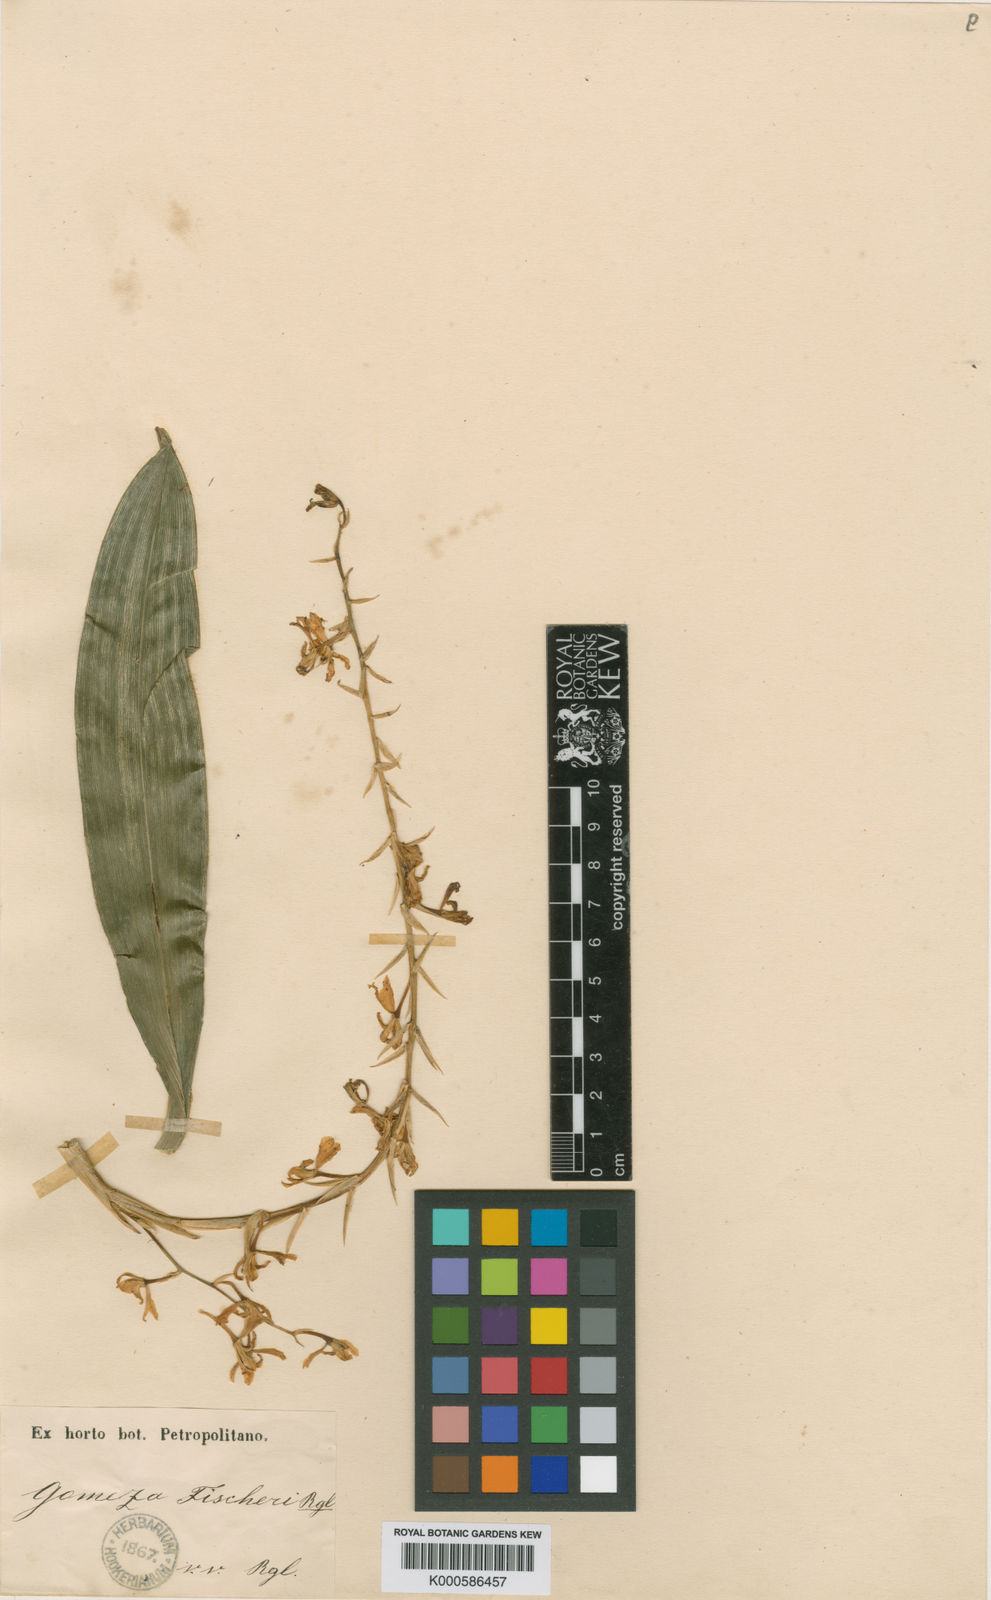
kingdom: Plantae
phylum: Tracheophyta
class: Liliopsida
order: Asparagales
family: Orchidaceae
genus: Gomesa
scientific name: Gomesa fischeri
